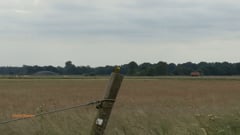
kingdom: Animalia
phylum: Chordata
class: Aves
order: Passeriformes
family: Emberizidae
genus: Emberiza
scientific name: Emberiza citrinella
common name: Yellowhammer
